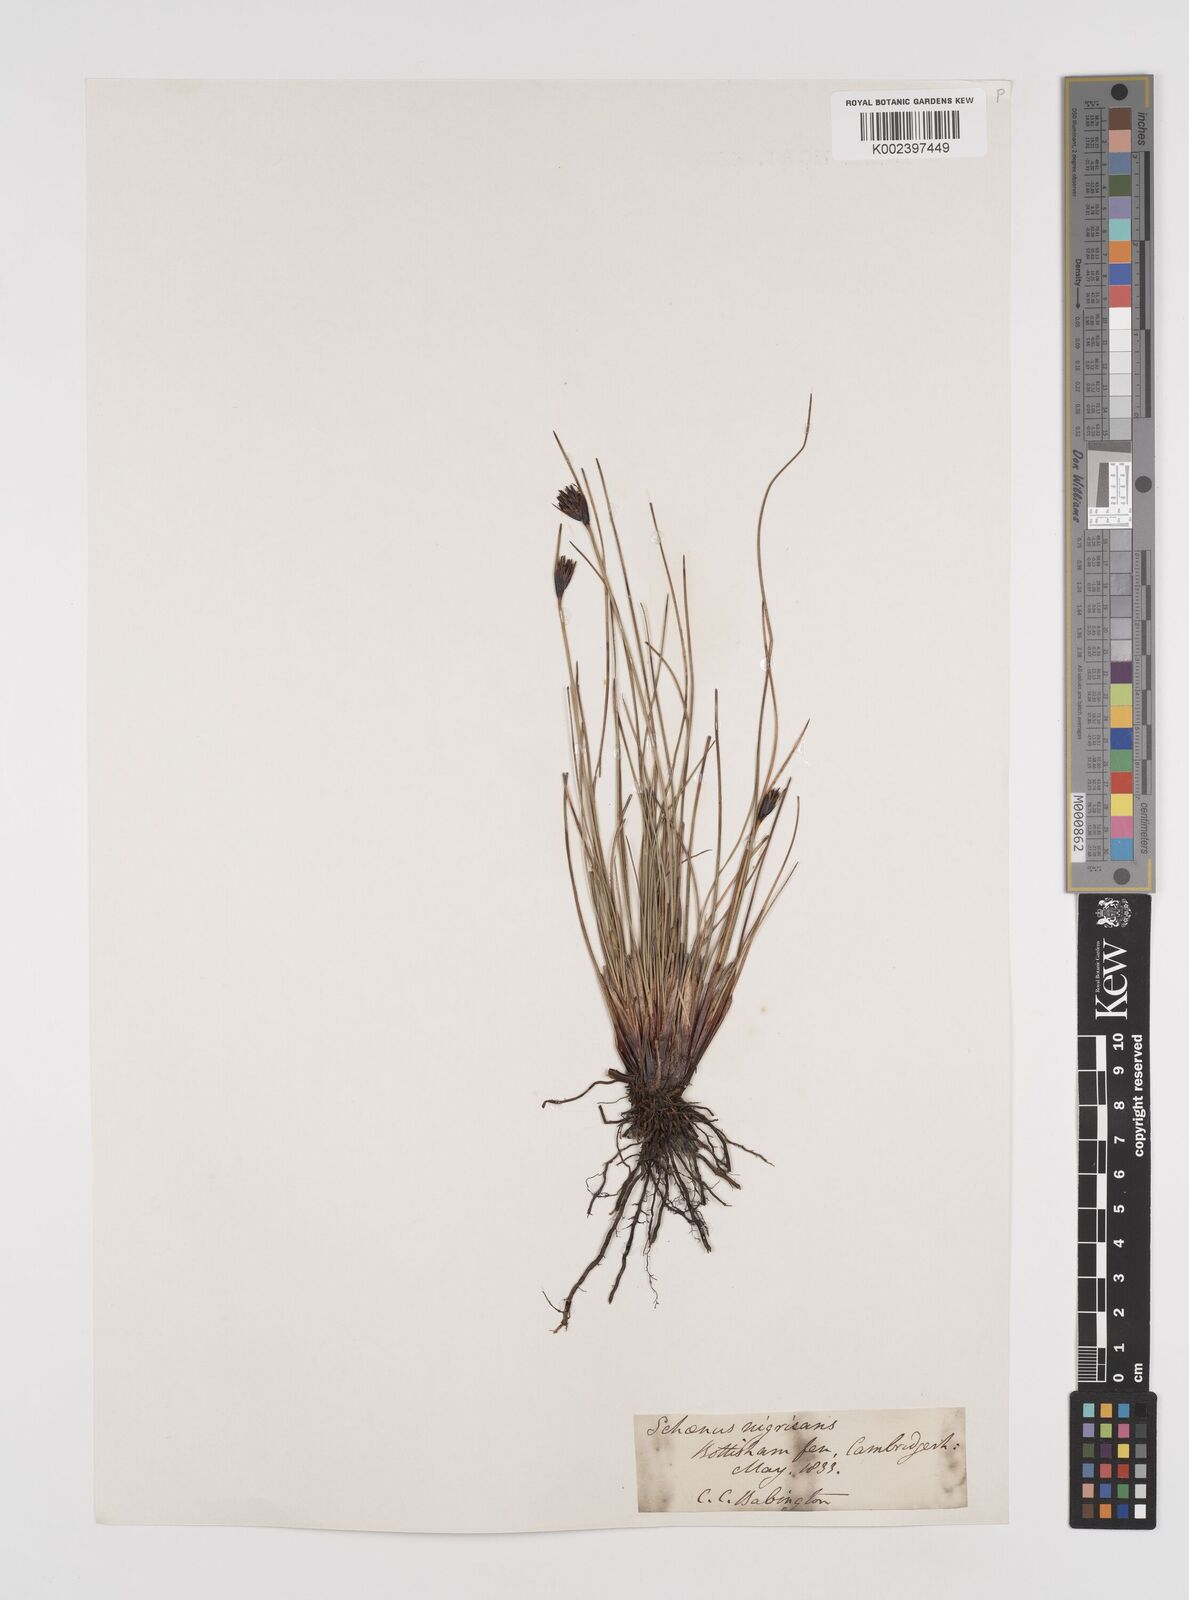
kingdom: Plantae
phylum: Tracheophyta
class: Liliopsida
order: Poales
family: Cyperaceae
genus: Schoenus
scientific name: Schoenus nigricans
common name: Black bog-rush
